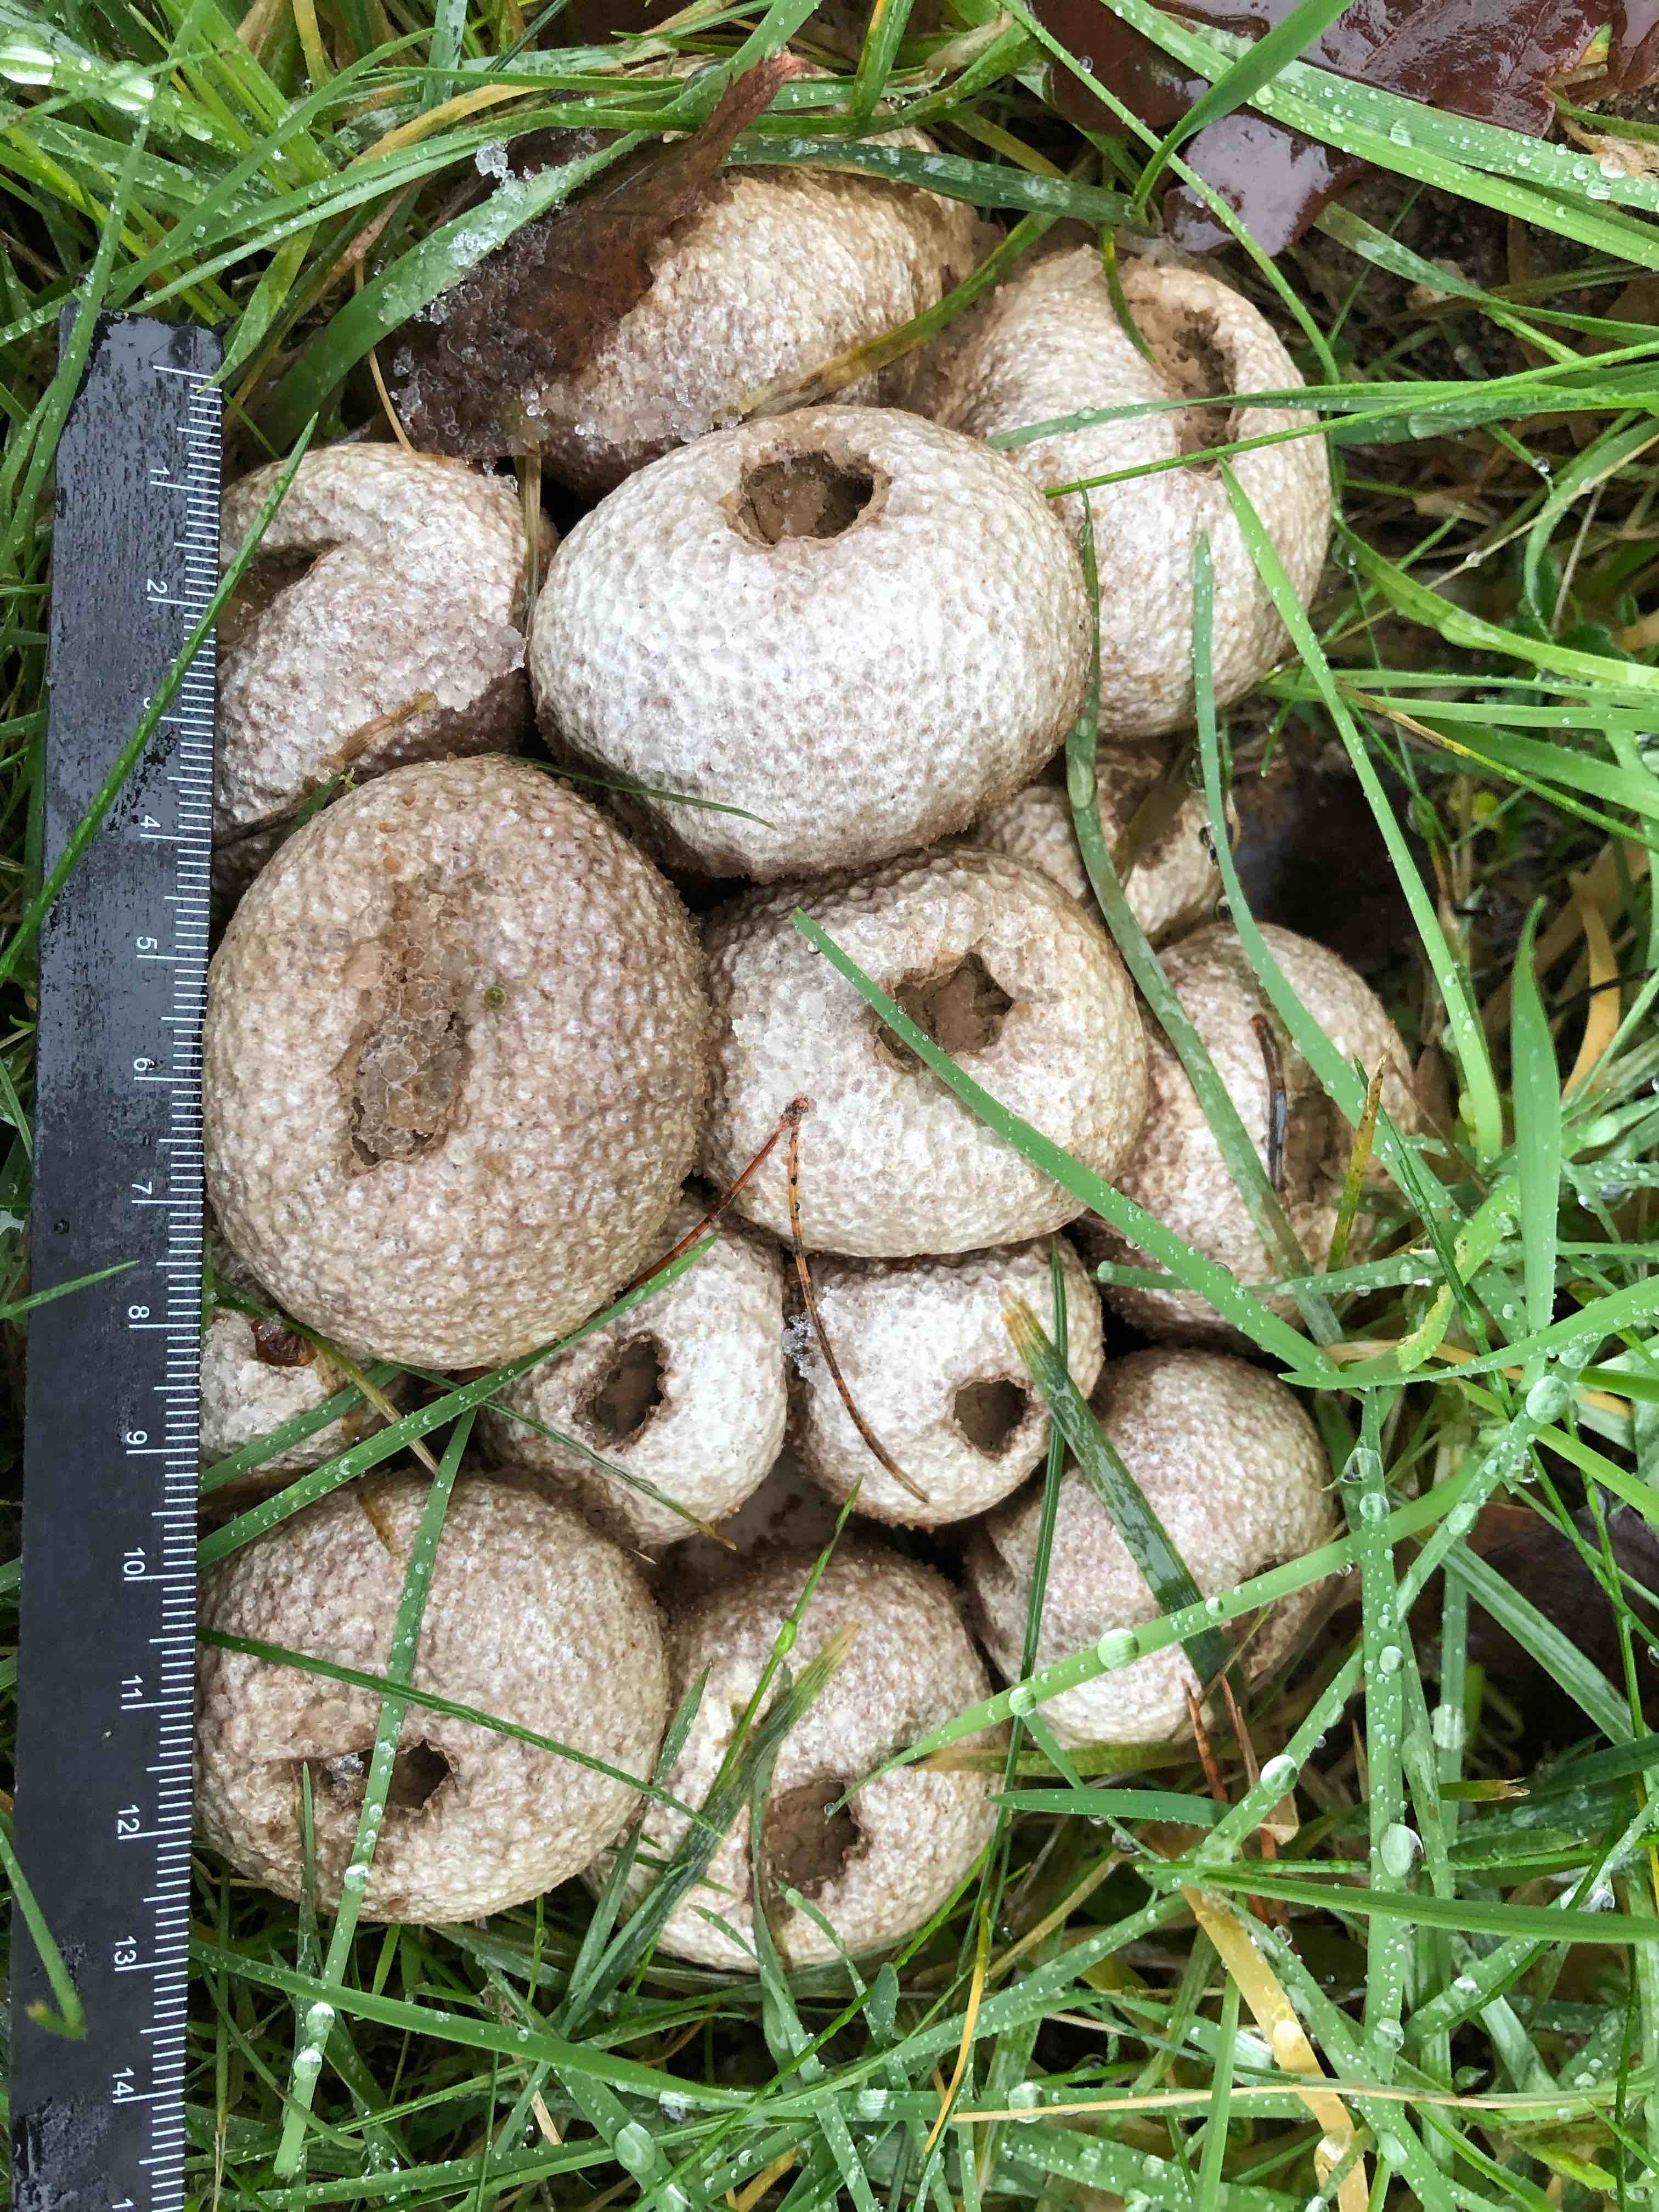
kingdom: Fungi
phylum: Basidiomycota
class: Agaricomycetes
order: Agaricales
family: Lycoperdaceae
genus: Lycoperdon
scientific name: Lycoperdon perlatum
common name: krystal-støvbold
